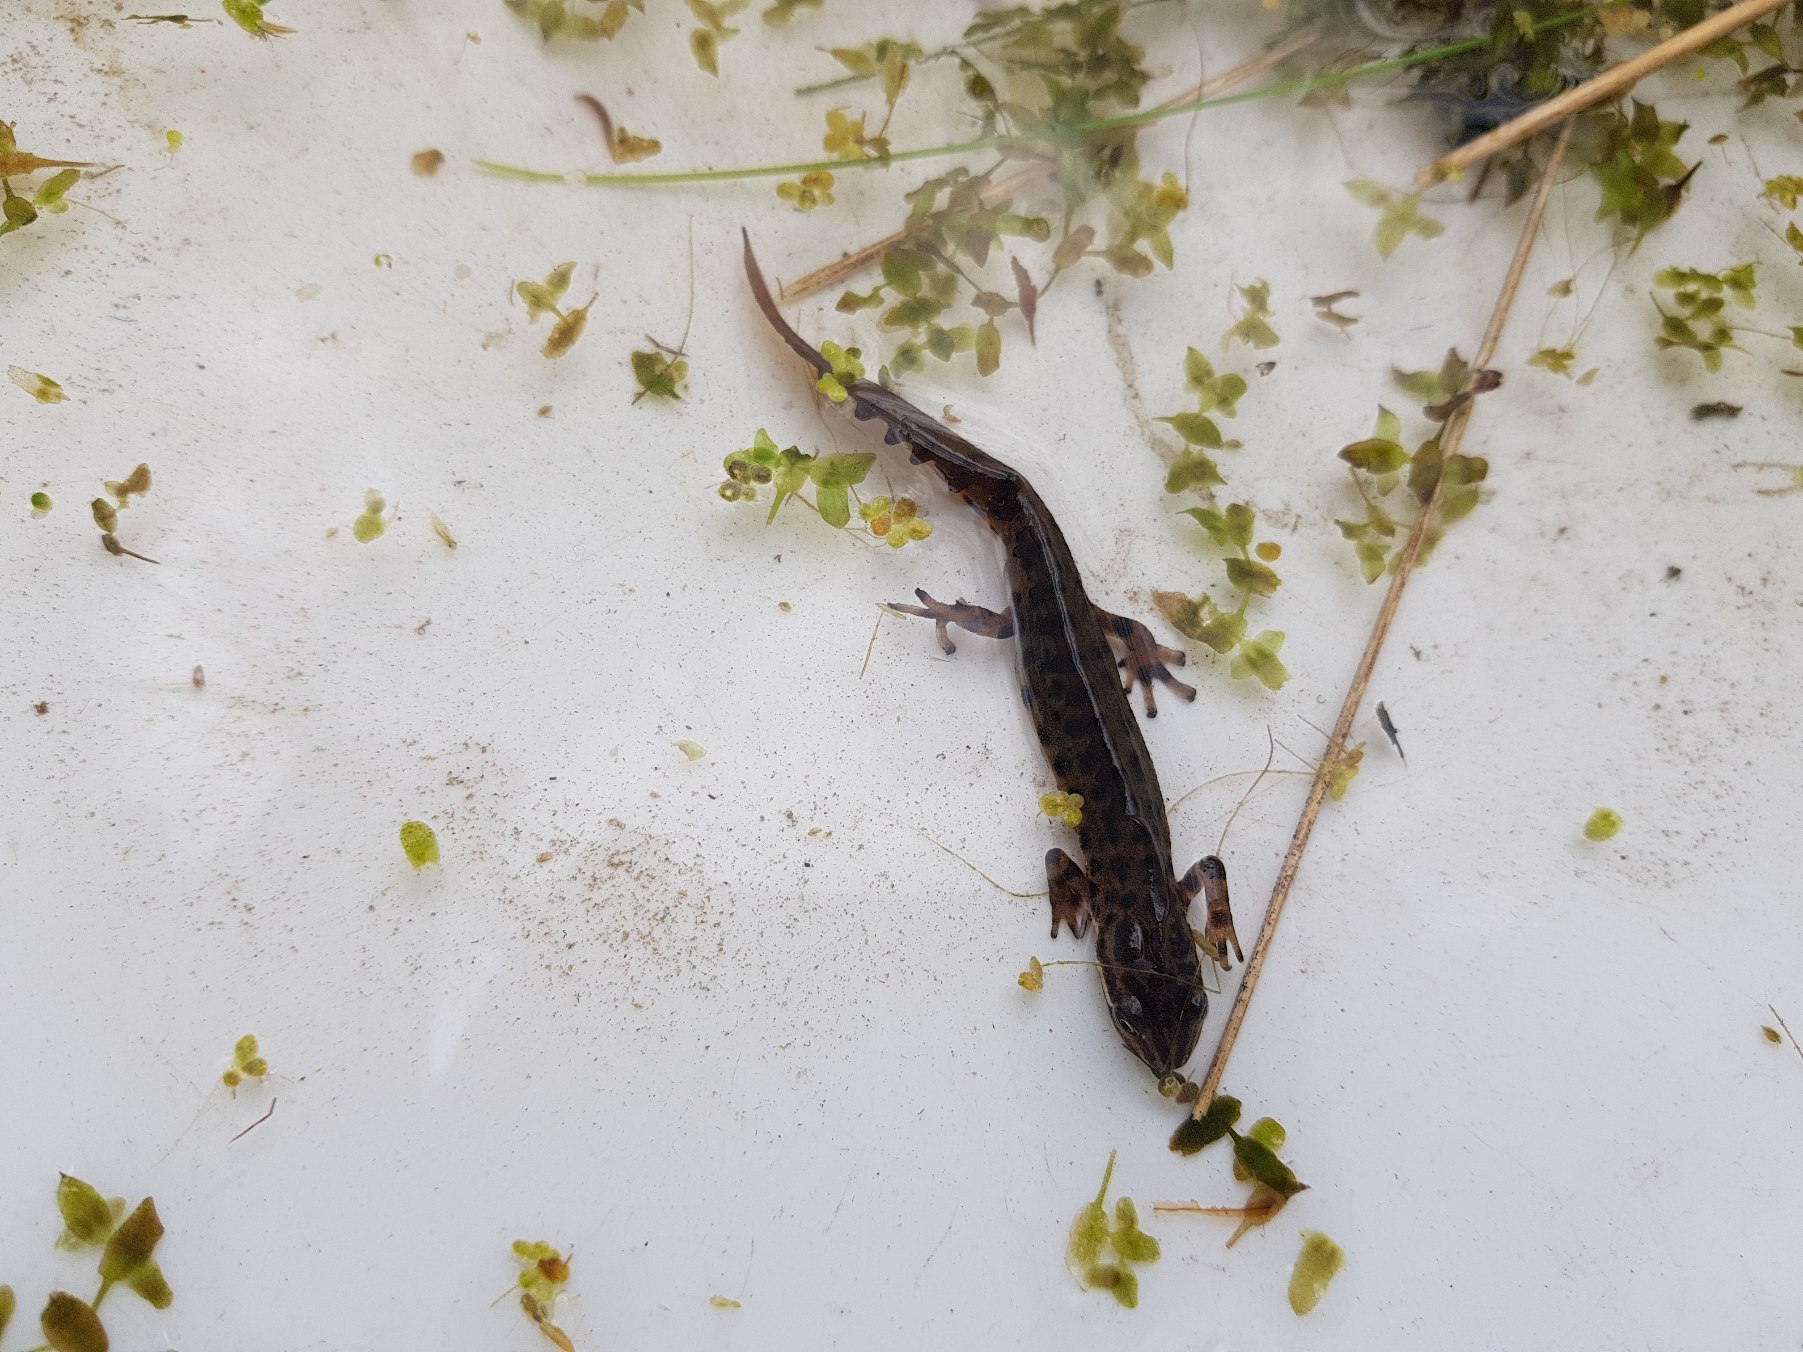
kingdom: Animalia
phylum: Chordata
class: Amphibia
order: Caudata
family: Salamandridae
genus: Lissotriton
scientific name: Lissotriton vulgaris
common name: Lille vandsalamander
